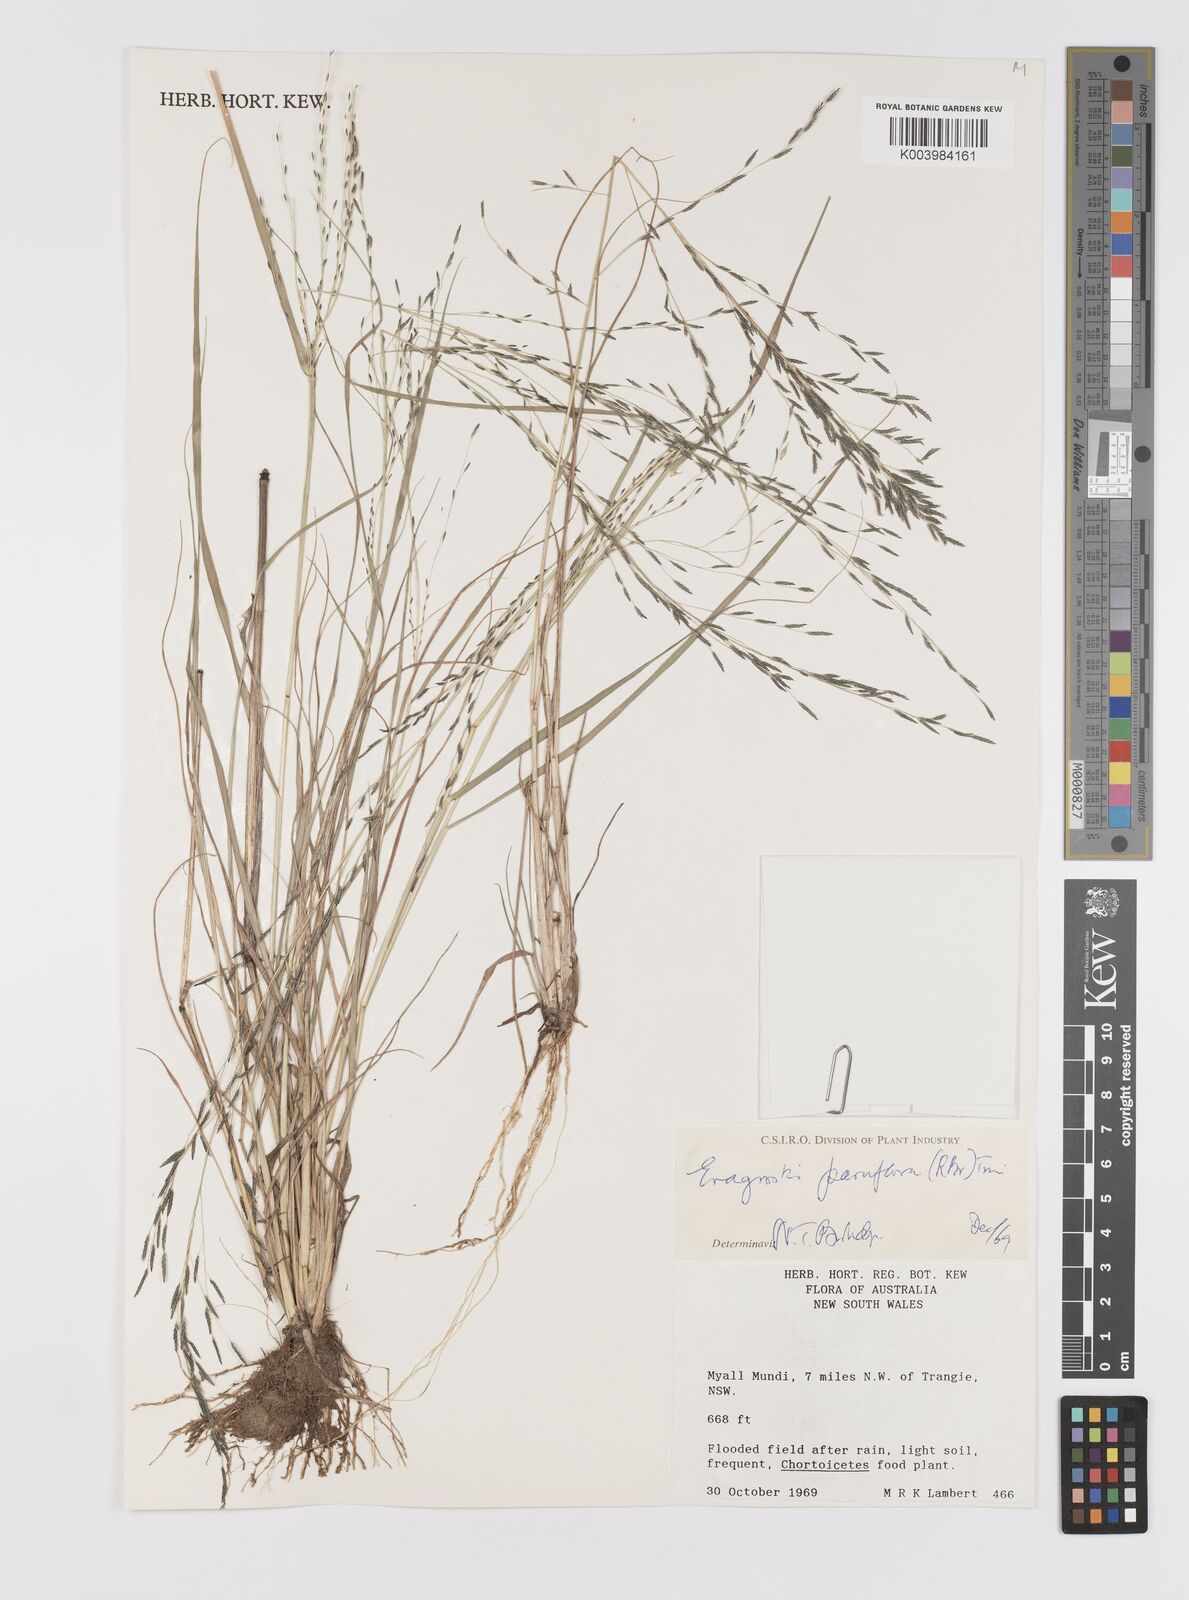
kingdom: Plantae
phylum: Tracheophyta
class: Liliopsida
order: Poales
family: Poaceae
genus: Eragrostis
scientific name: Eragrostis parviflora
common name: Weeping love-grass
